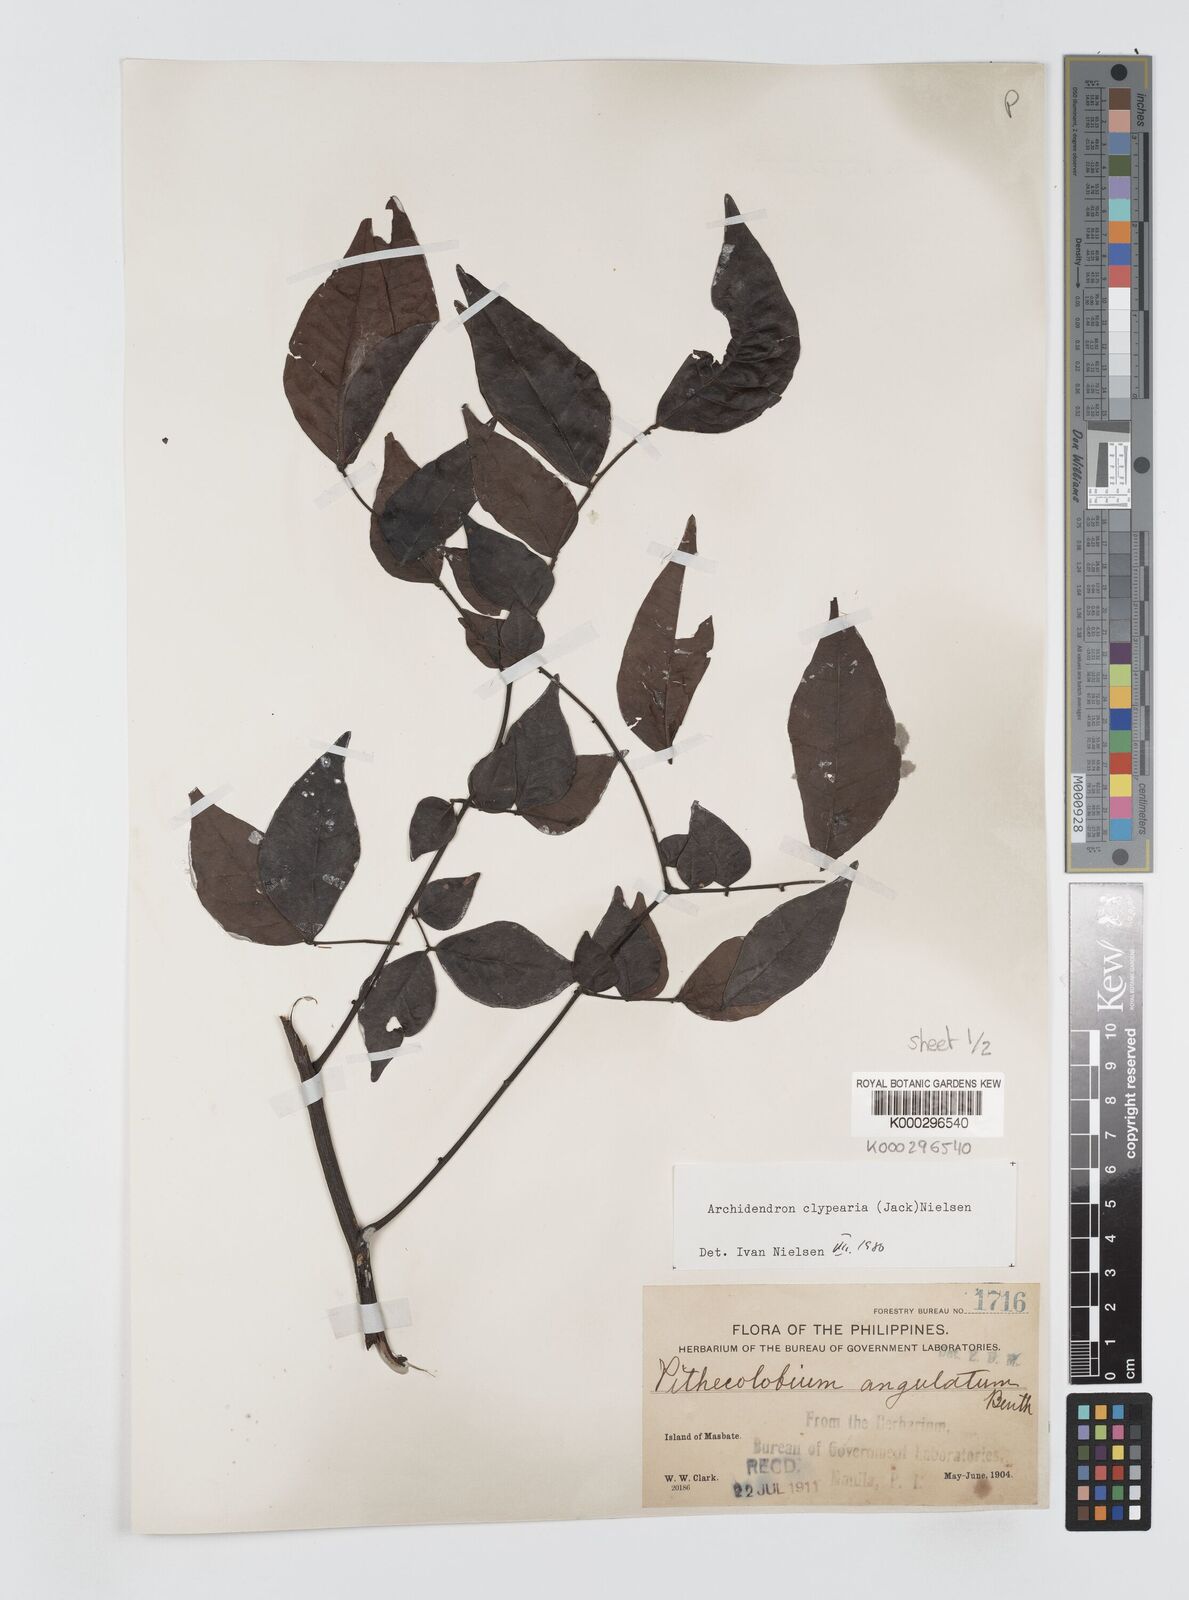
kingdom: Plantae
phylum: Tracheophyta
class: Magnoliopsida
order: Fabales
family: Fabaceae
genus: Archidendron
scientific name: Archidendron clypearia
